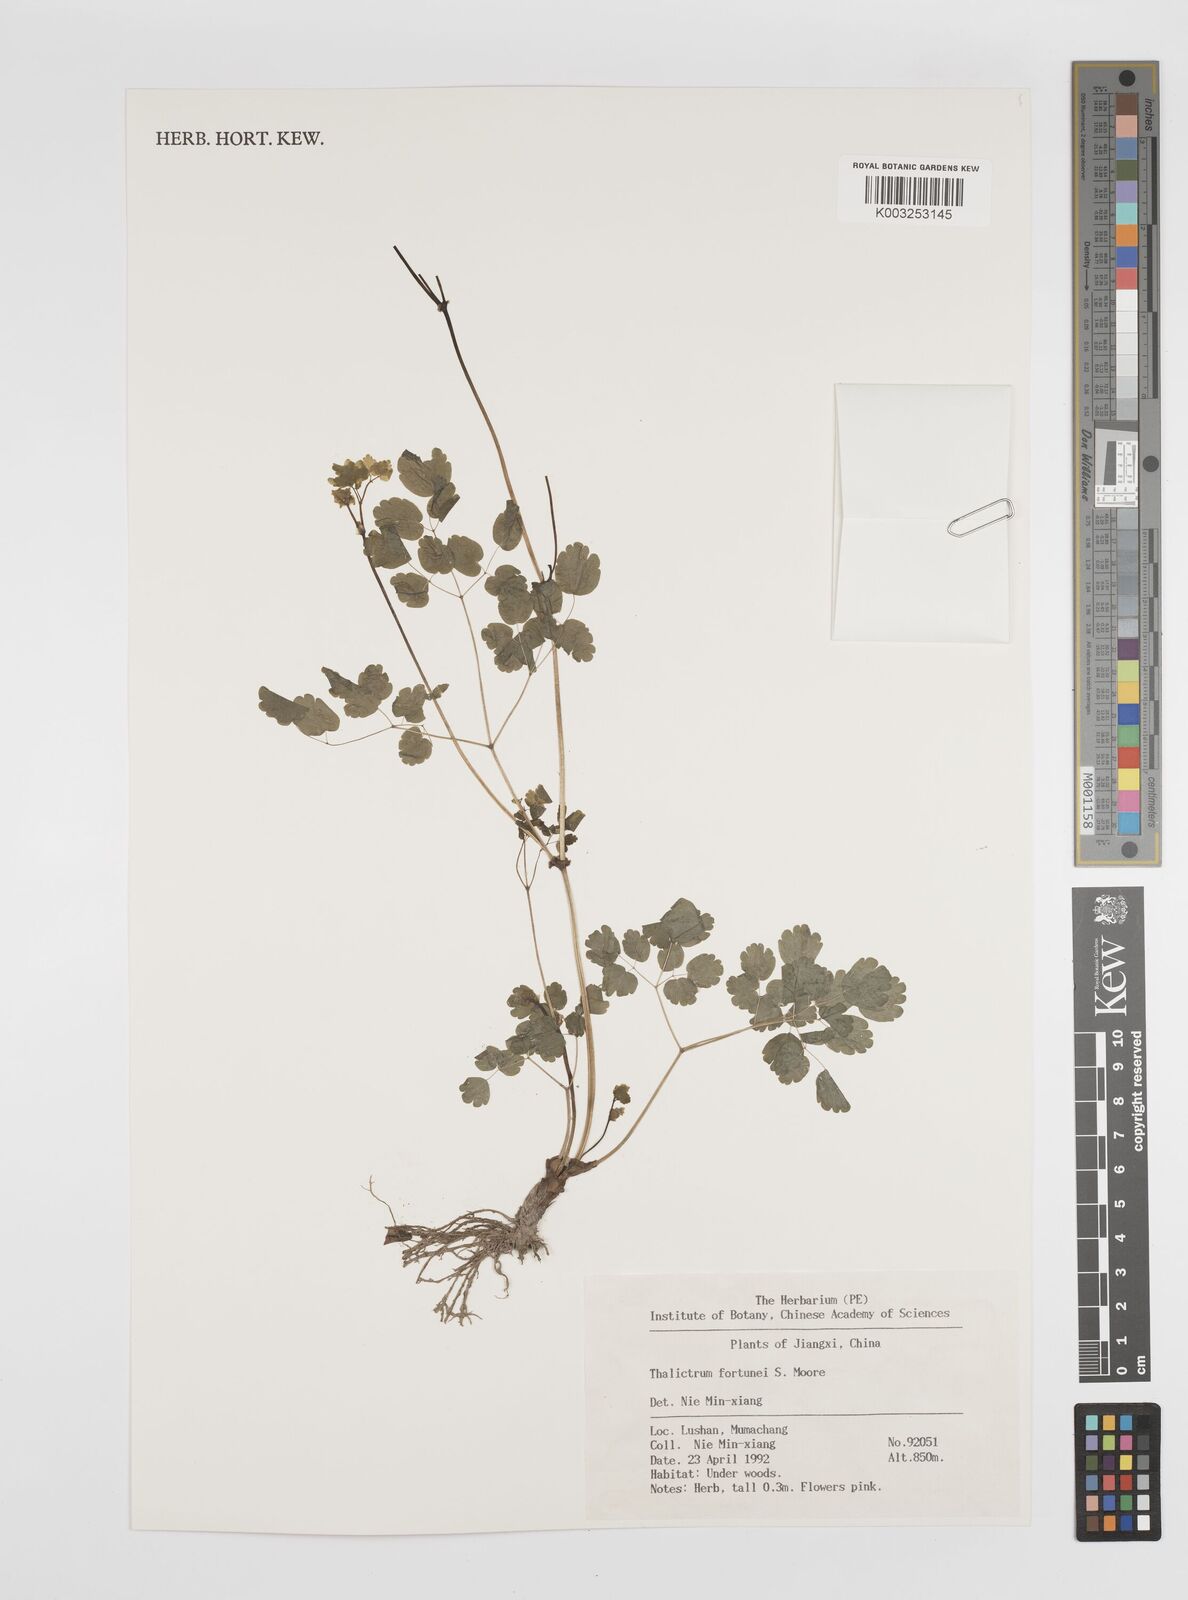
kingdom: Plantae
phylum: Tracheophyta
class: Magnoliopsida
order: Ranunculales
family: Ranunculaceae
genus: Thalictrum
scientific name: Thalictrum fortunei
